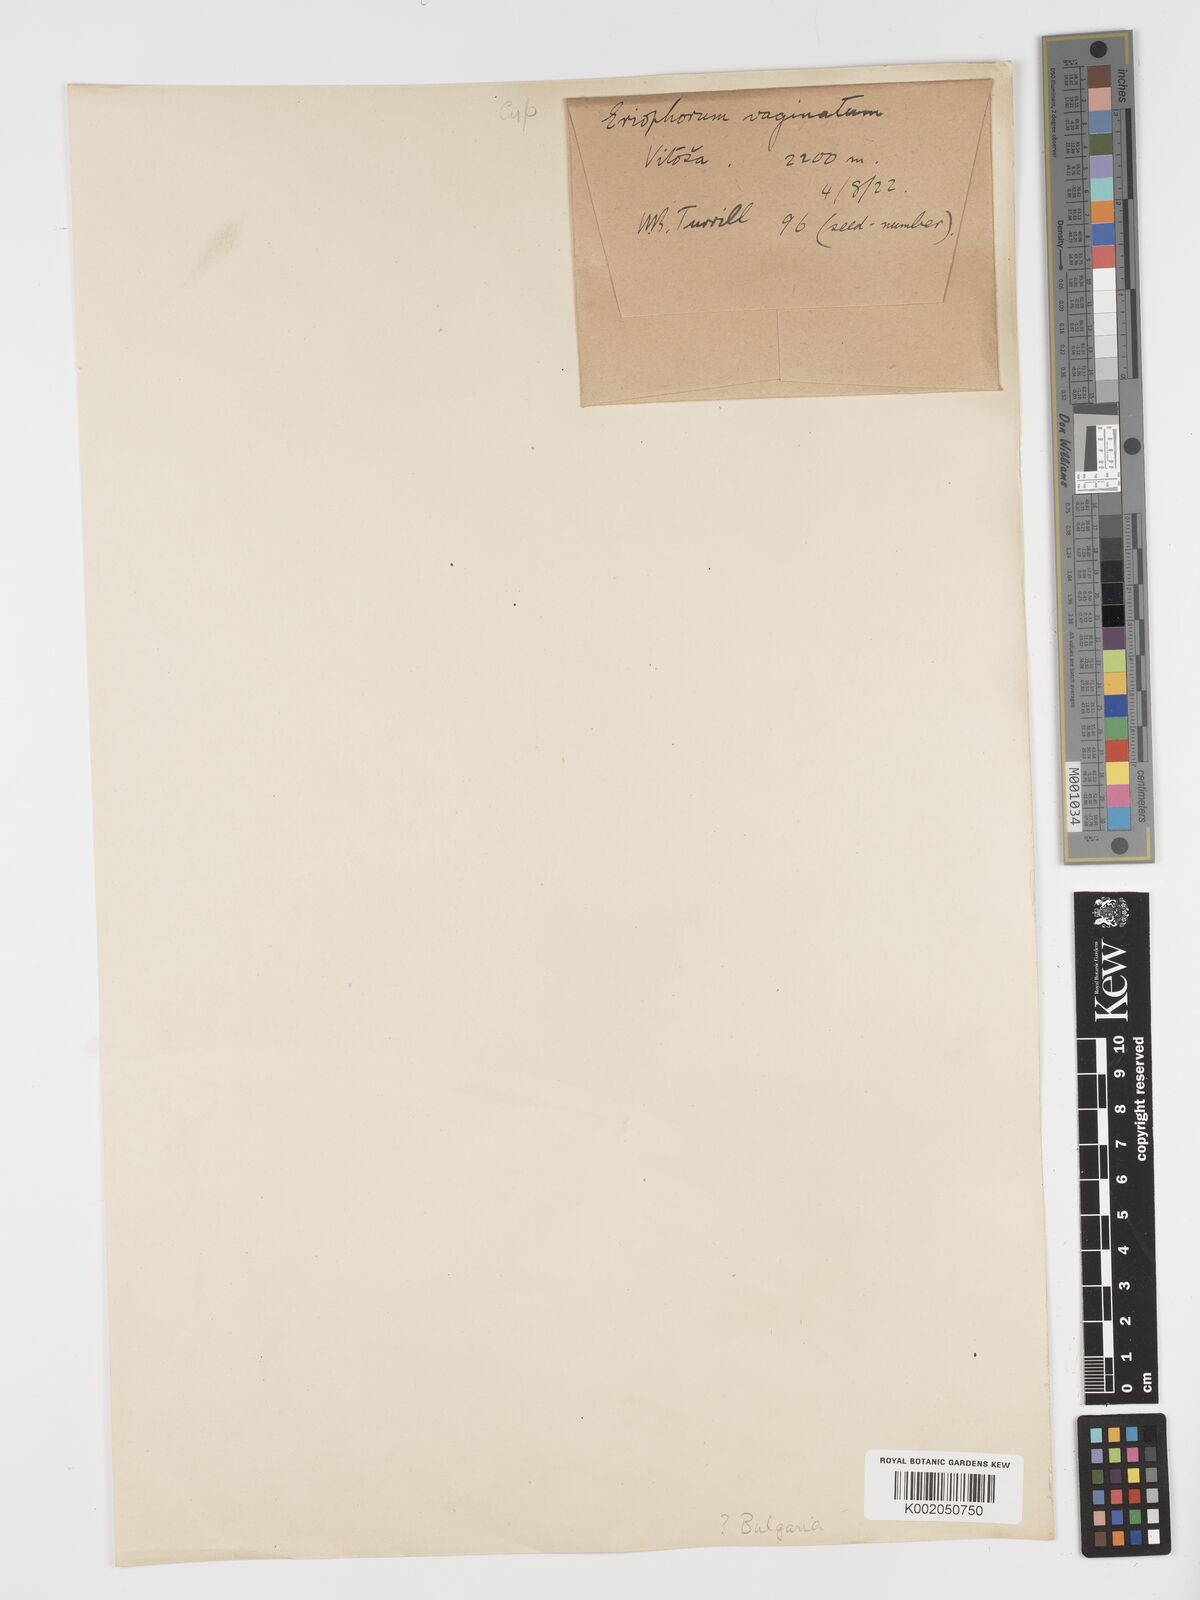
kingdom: Plantae
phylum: Tracheophyta
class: Liliopsida
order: Poales
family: Cyperaceae
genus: Eriophorum
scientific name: Eriophorum vaginatum
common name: Hare's-tail cottongrass
